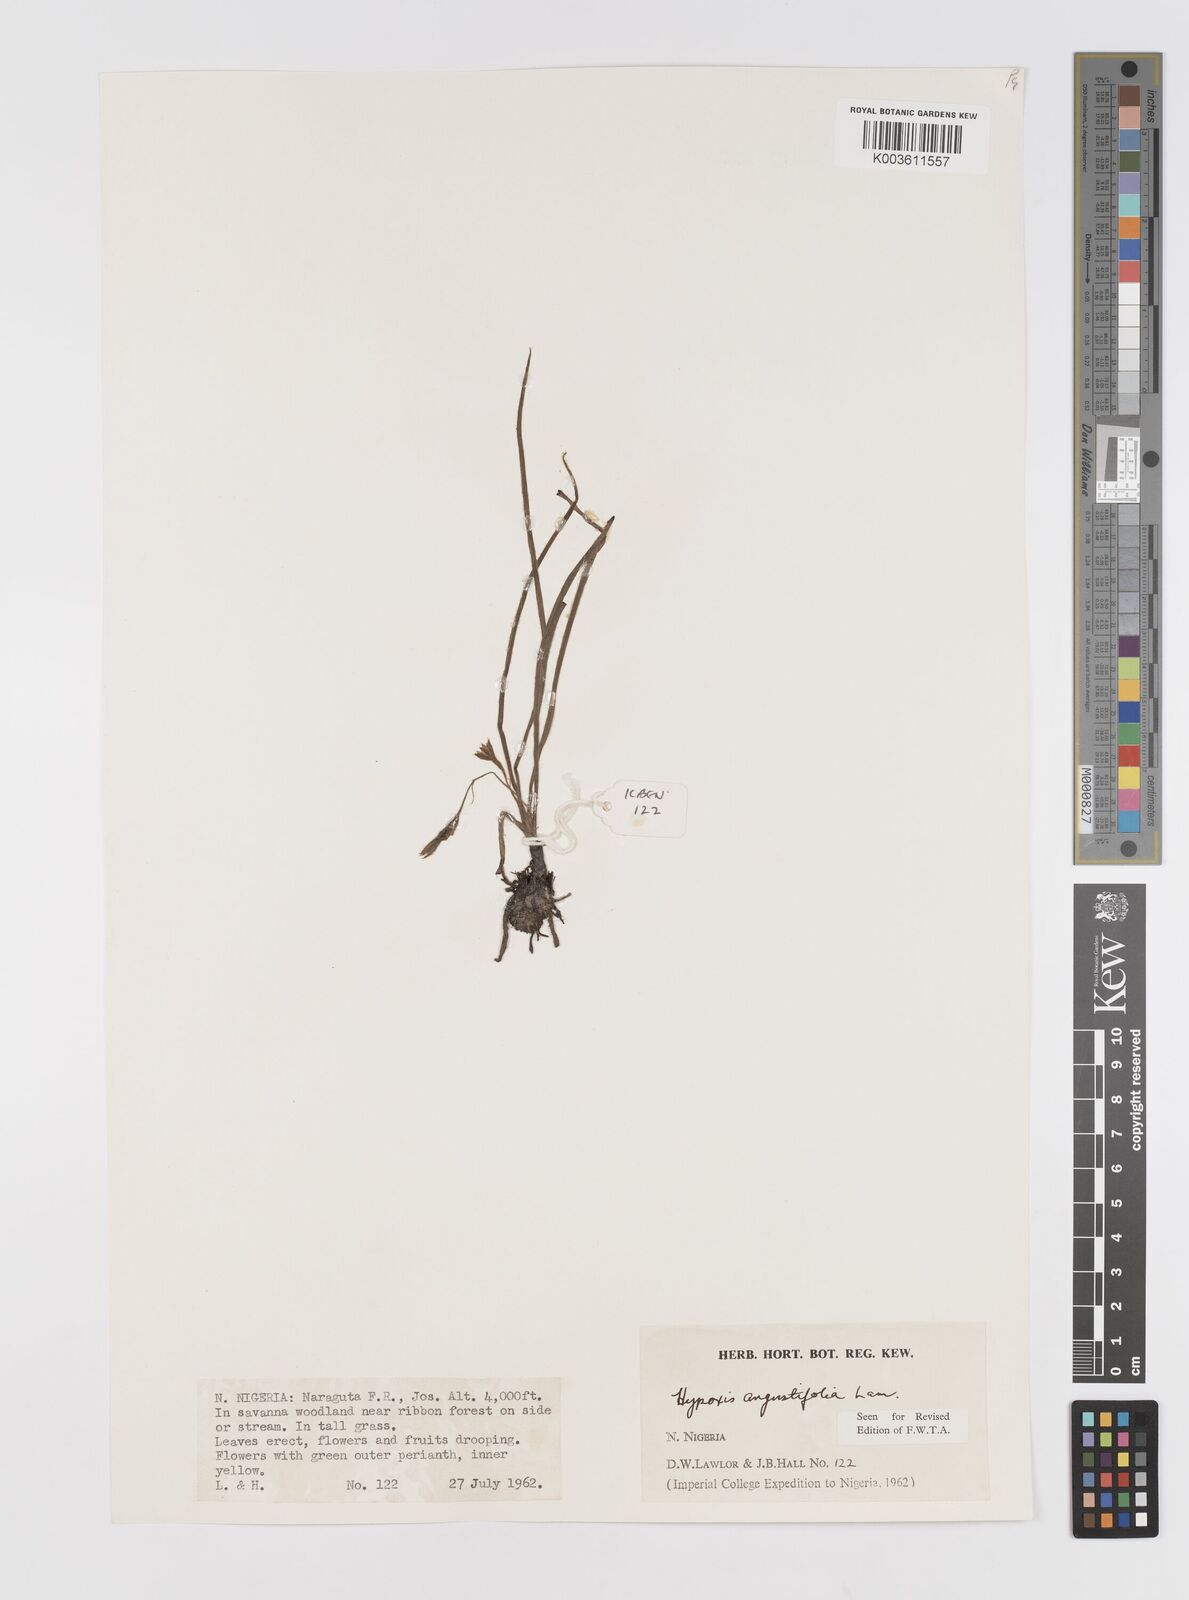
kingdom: Plantae
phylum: Tracheophyta
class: Liliopsida
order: Asparagales
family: Hypoxidaceae
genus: Hypoxis
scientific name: Hypoxis angustifolia
